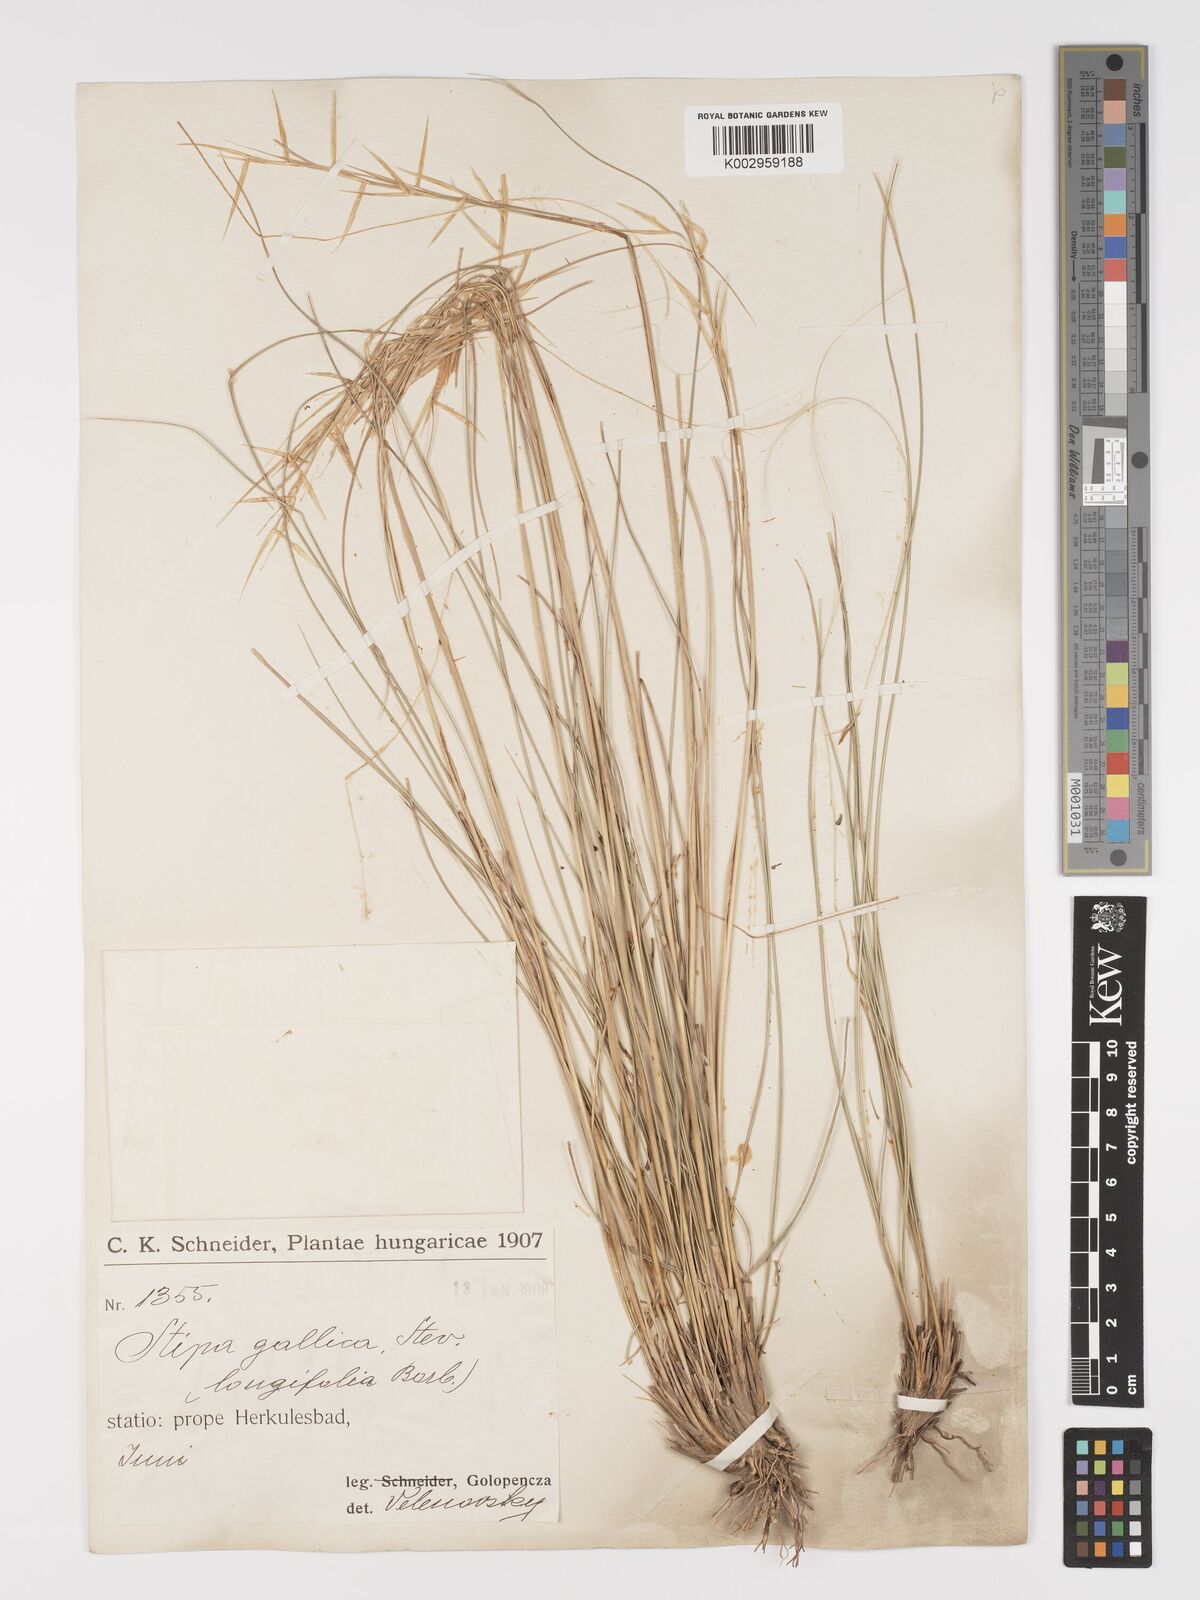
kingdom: Plantae
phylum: Tracheophyta
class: Liliopsida
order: Poales
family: Poaceae
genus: Stipa
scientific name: Stipa pennata
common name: European feather grass
